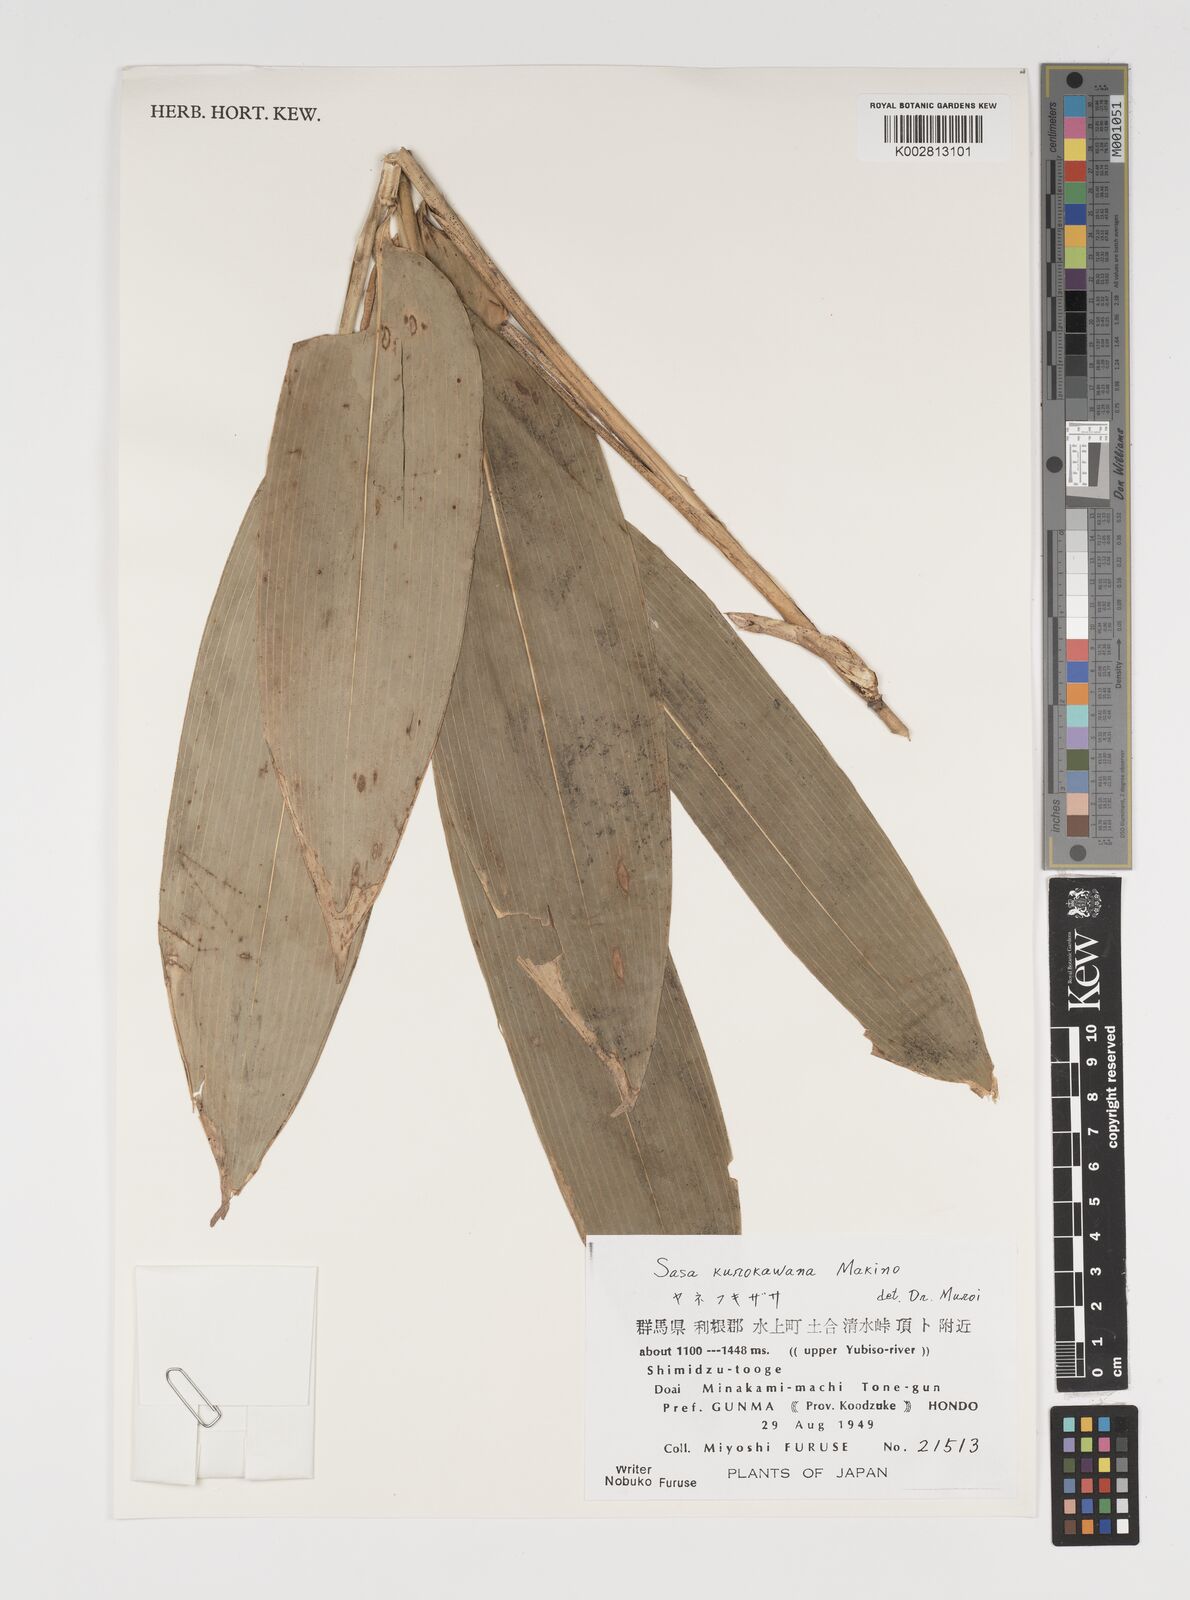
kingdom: Plantae
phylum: Tracheophyta
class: Liliopsida
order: Poales
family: Poaceae
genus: Sasa
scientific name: Sasa tsuboiana
